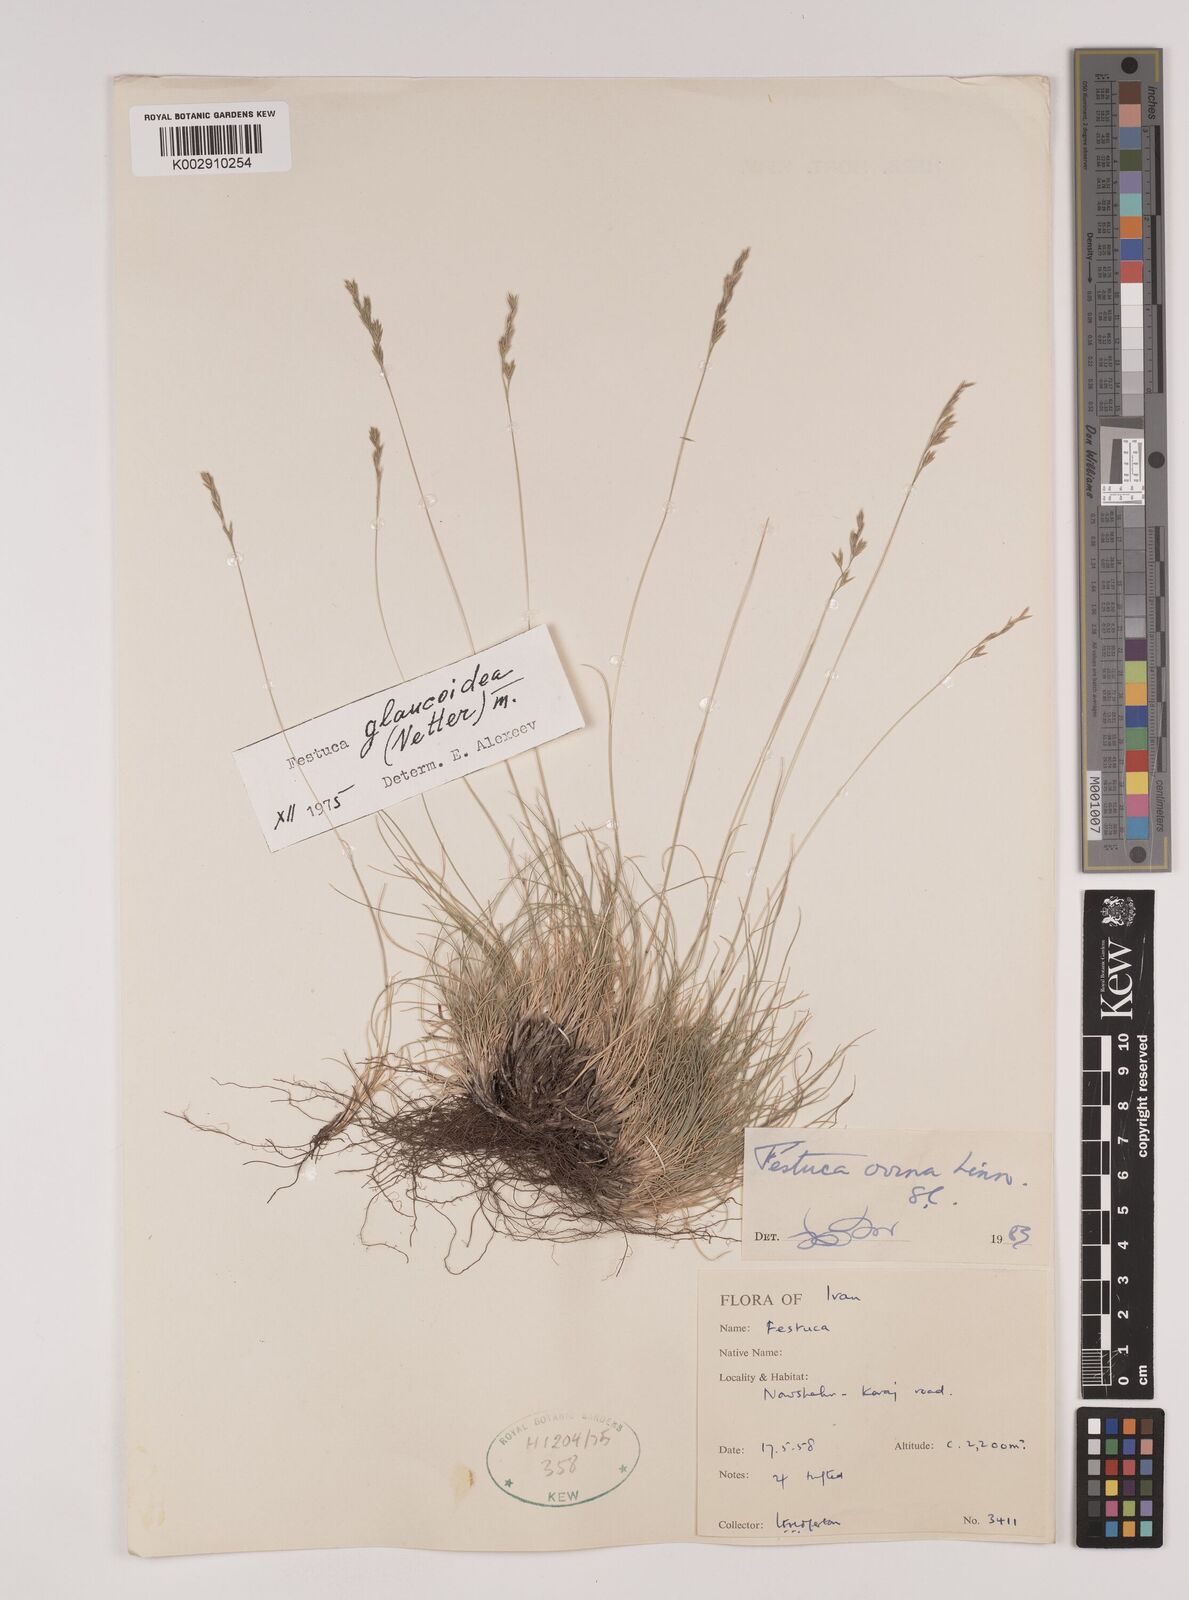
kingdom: Plantae
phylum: Tracheophyta
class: Liliopsida
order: Poales
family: Poaceae
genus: Festuca
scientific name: Festuca ovina
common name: Sheep fescue
